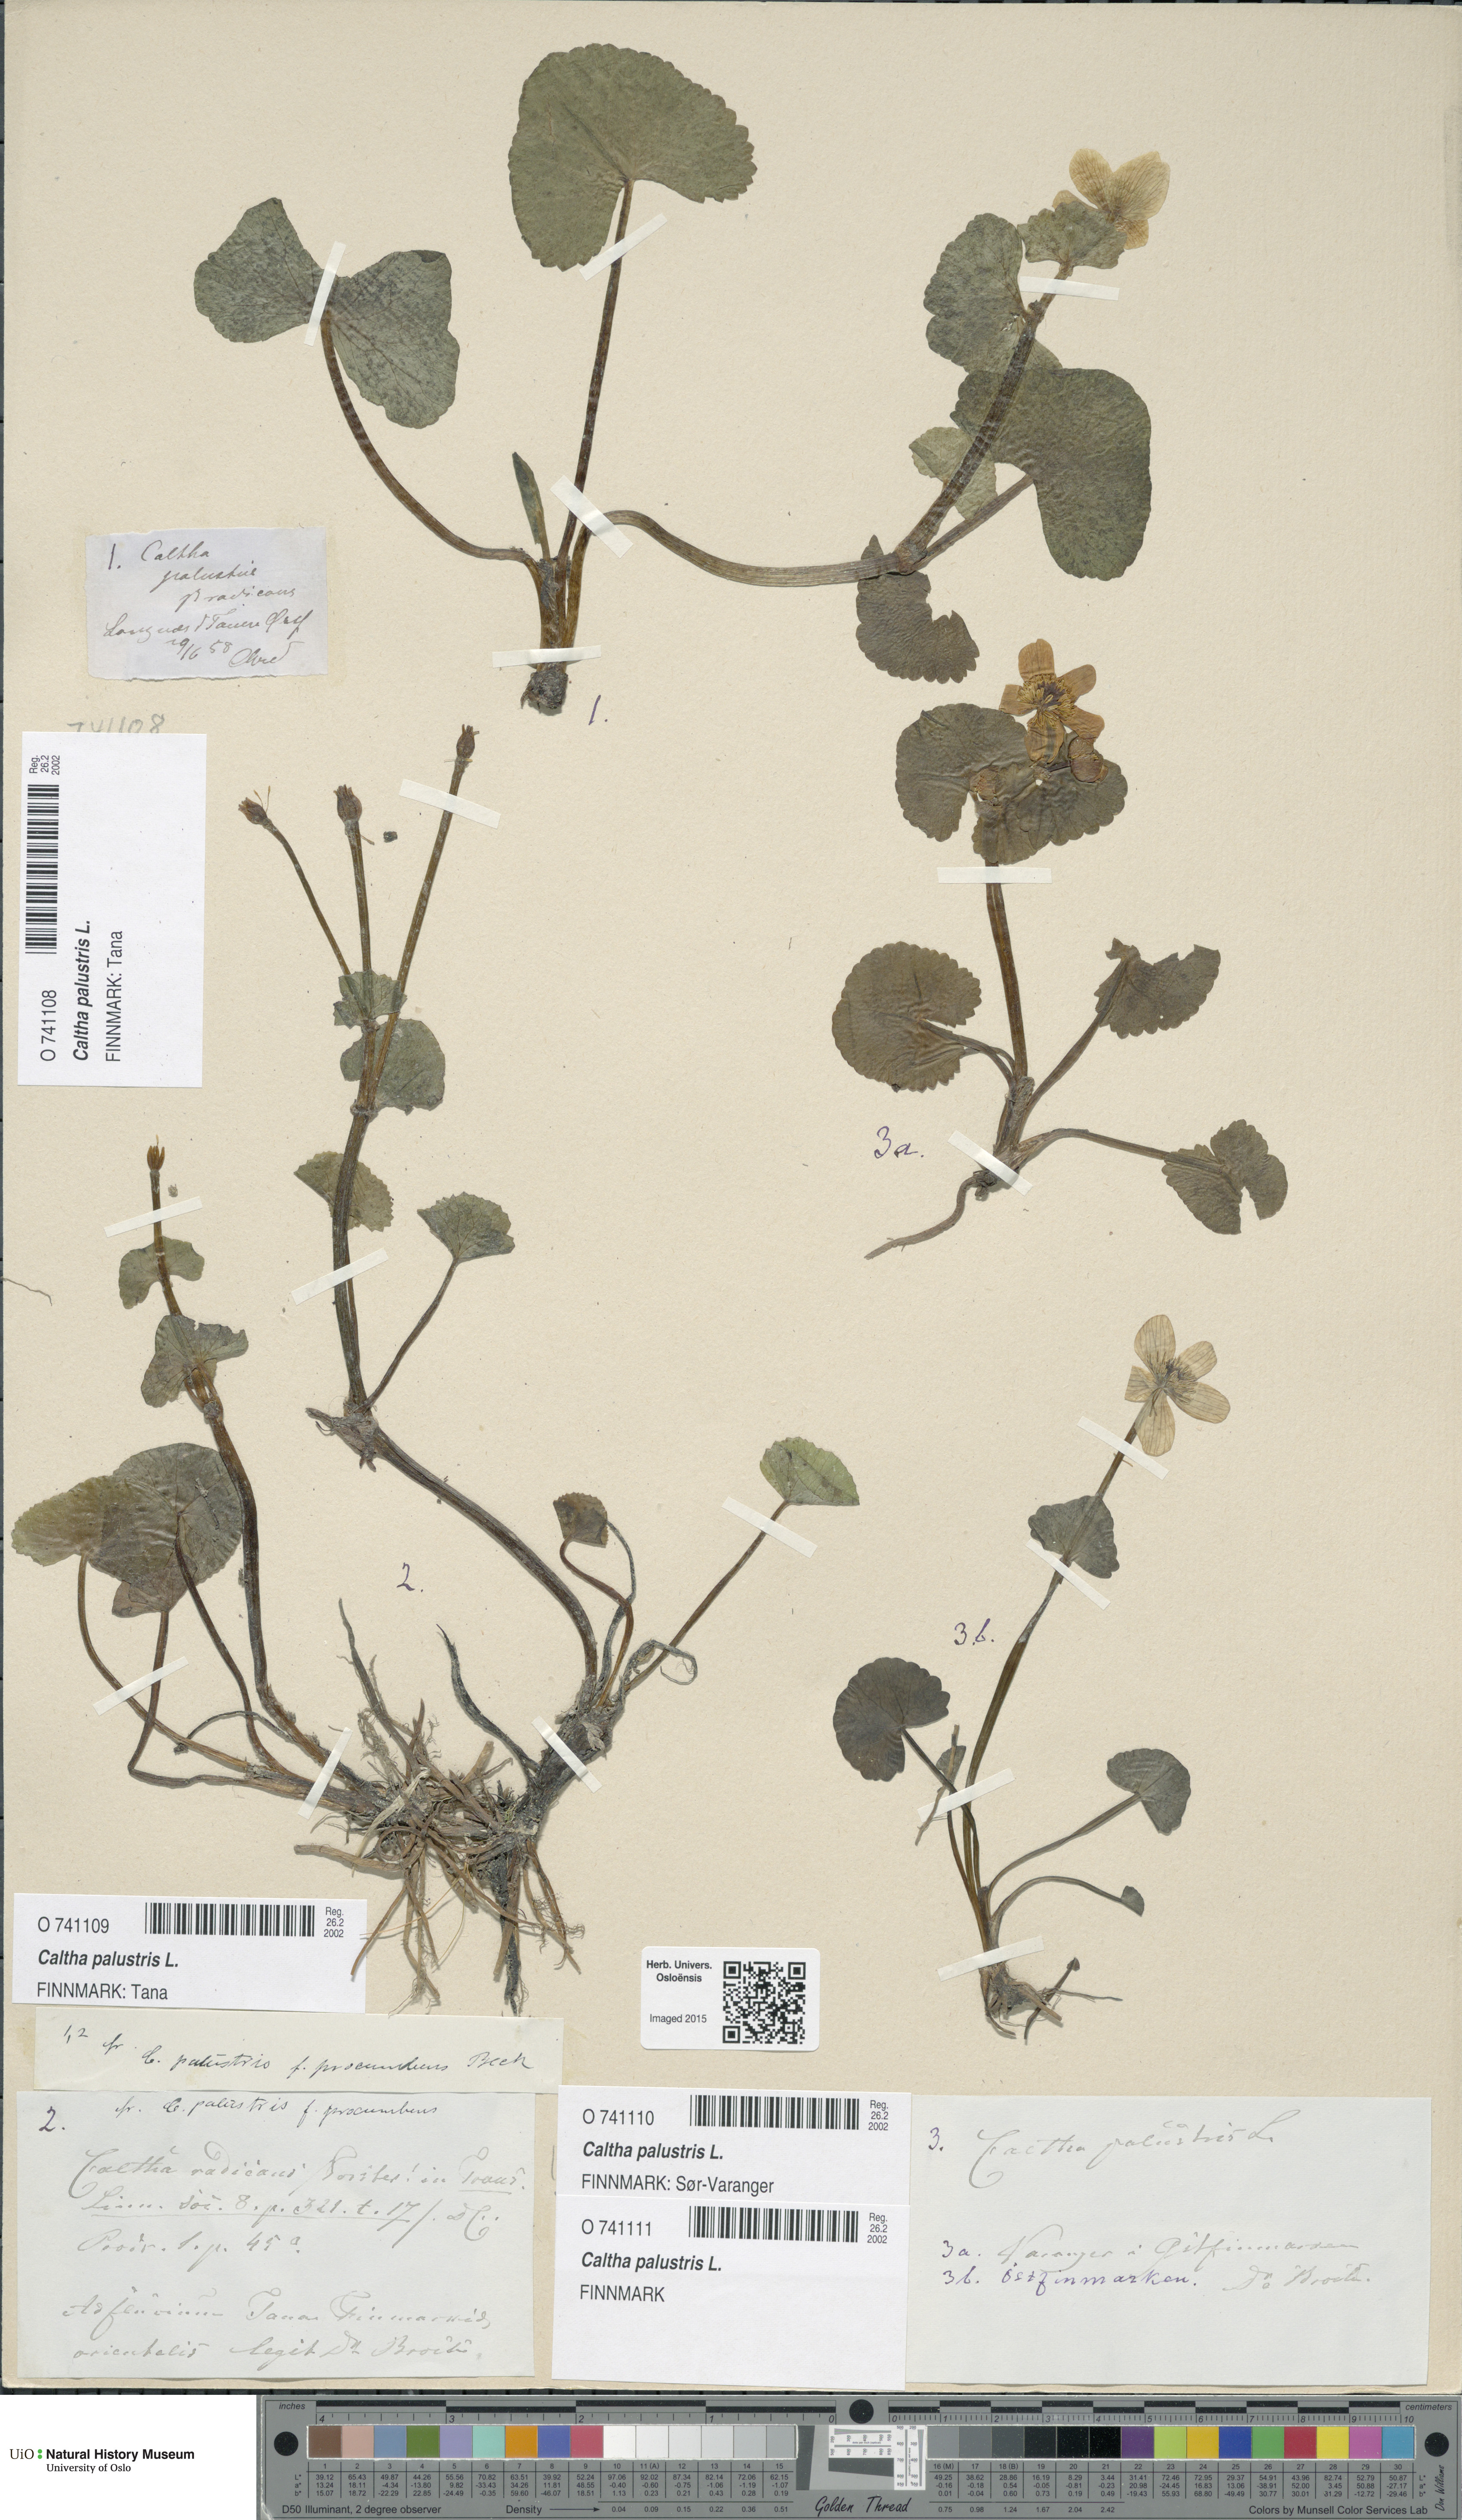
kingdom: Plantae
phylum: Tracheophyta
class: Magnoliopsida
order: Ranunculales
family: Ranunculaceae
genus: Caltha
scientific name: Caltha palustris
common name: Marsh marigold
